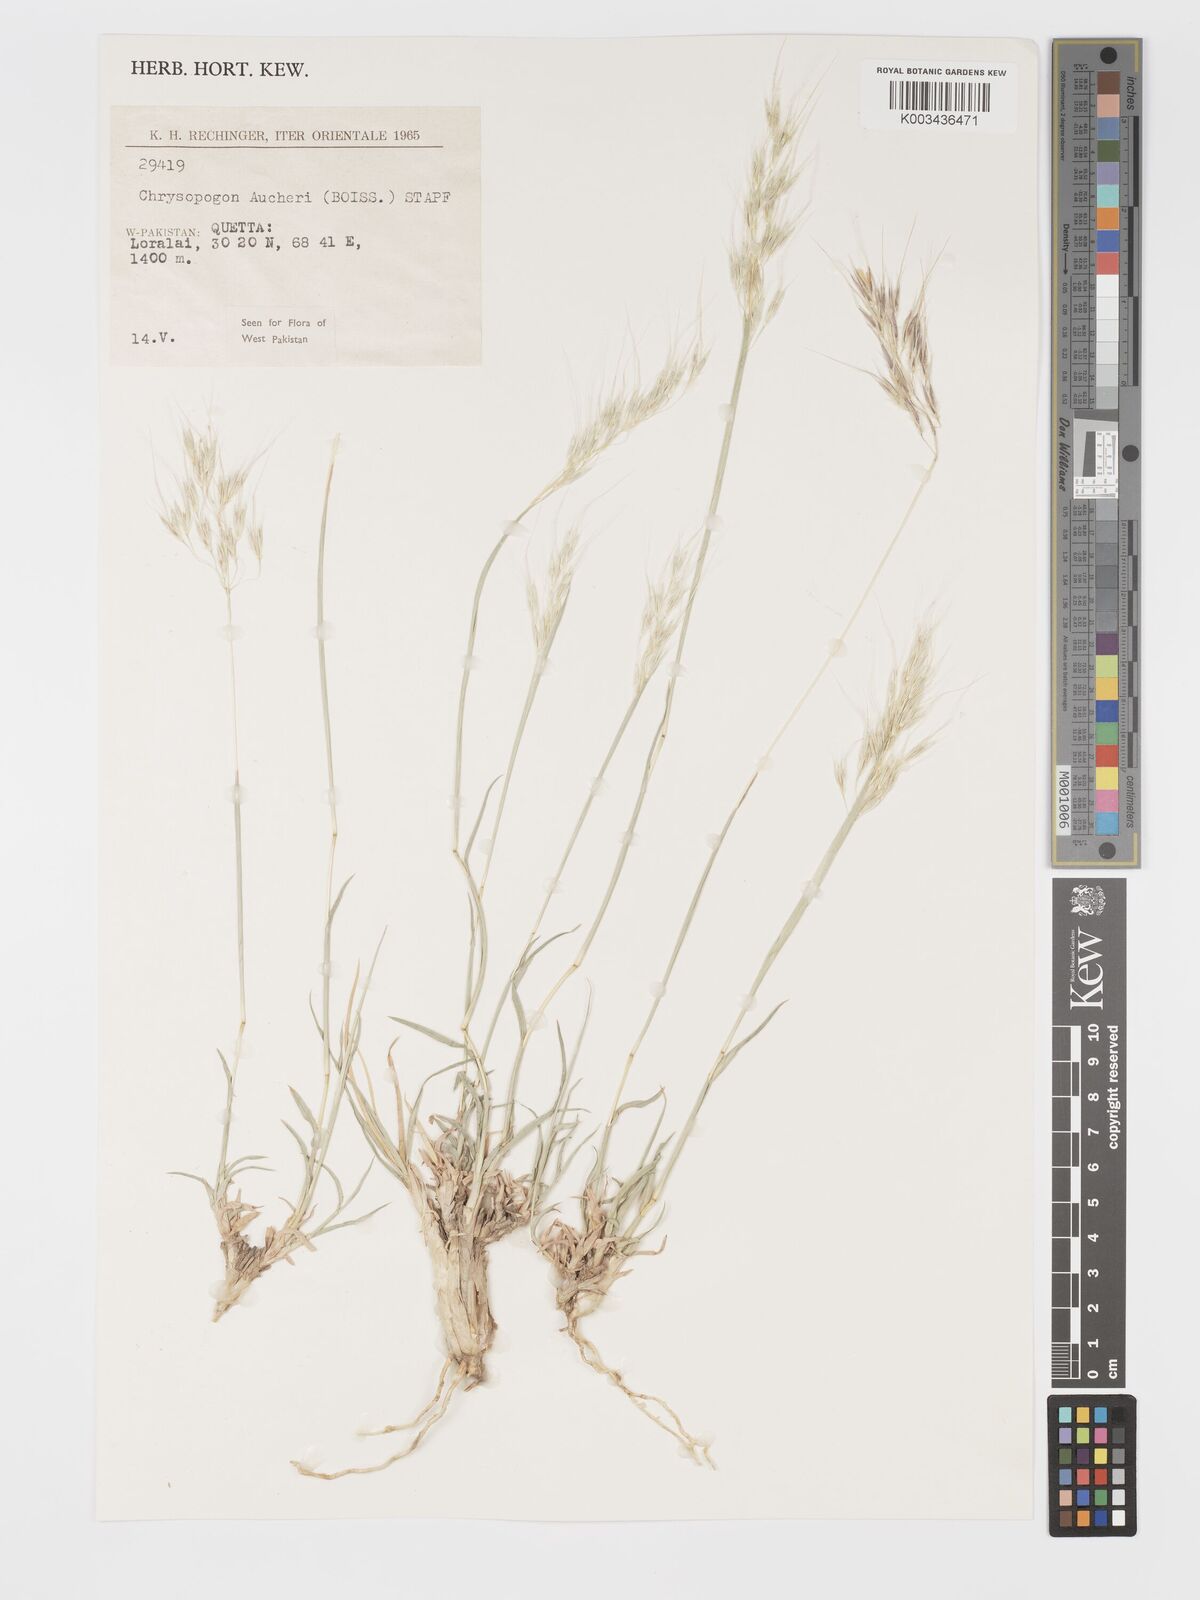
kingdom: Plantae
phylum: Tracheophyta
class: Liliopsida
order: Poales
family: Poaceae
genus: Chrysopogon
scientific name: Chrysopogon aucheri
